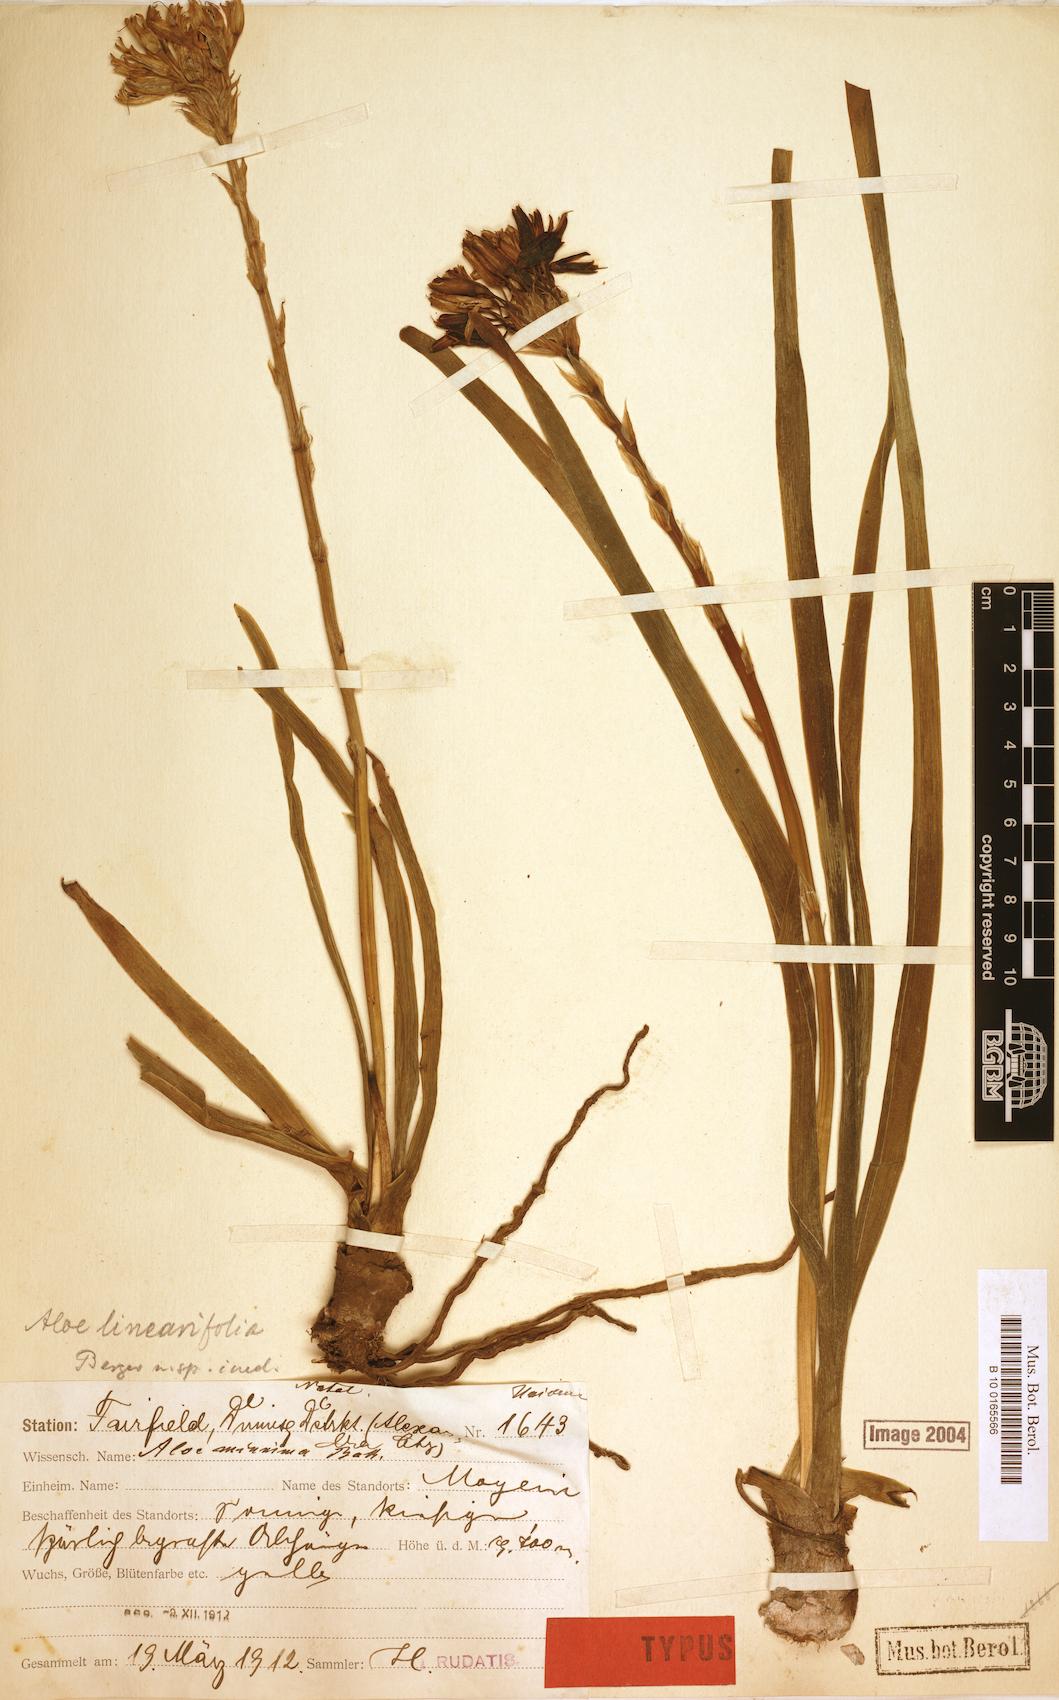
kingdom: Plantae
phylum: Tracheophyta
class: Liliopsida
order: Asparagales
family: Asphodelaceae
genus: Aloe
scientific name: Aloe linearifolia
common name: Dwarf yellow grass aloe
